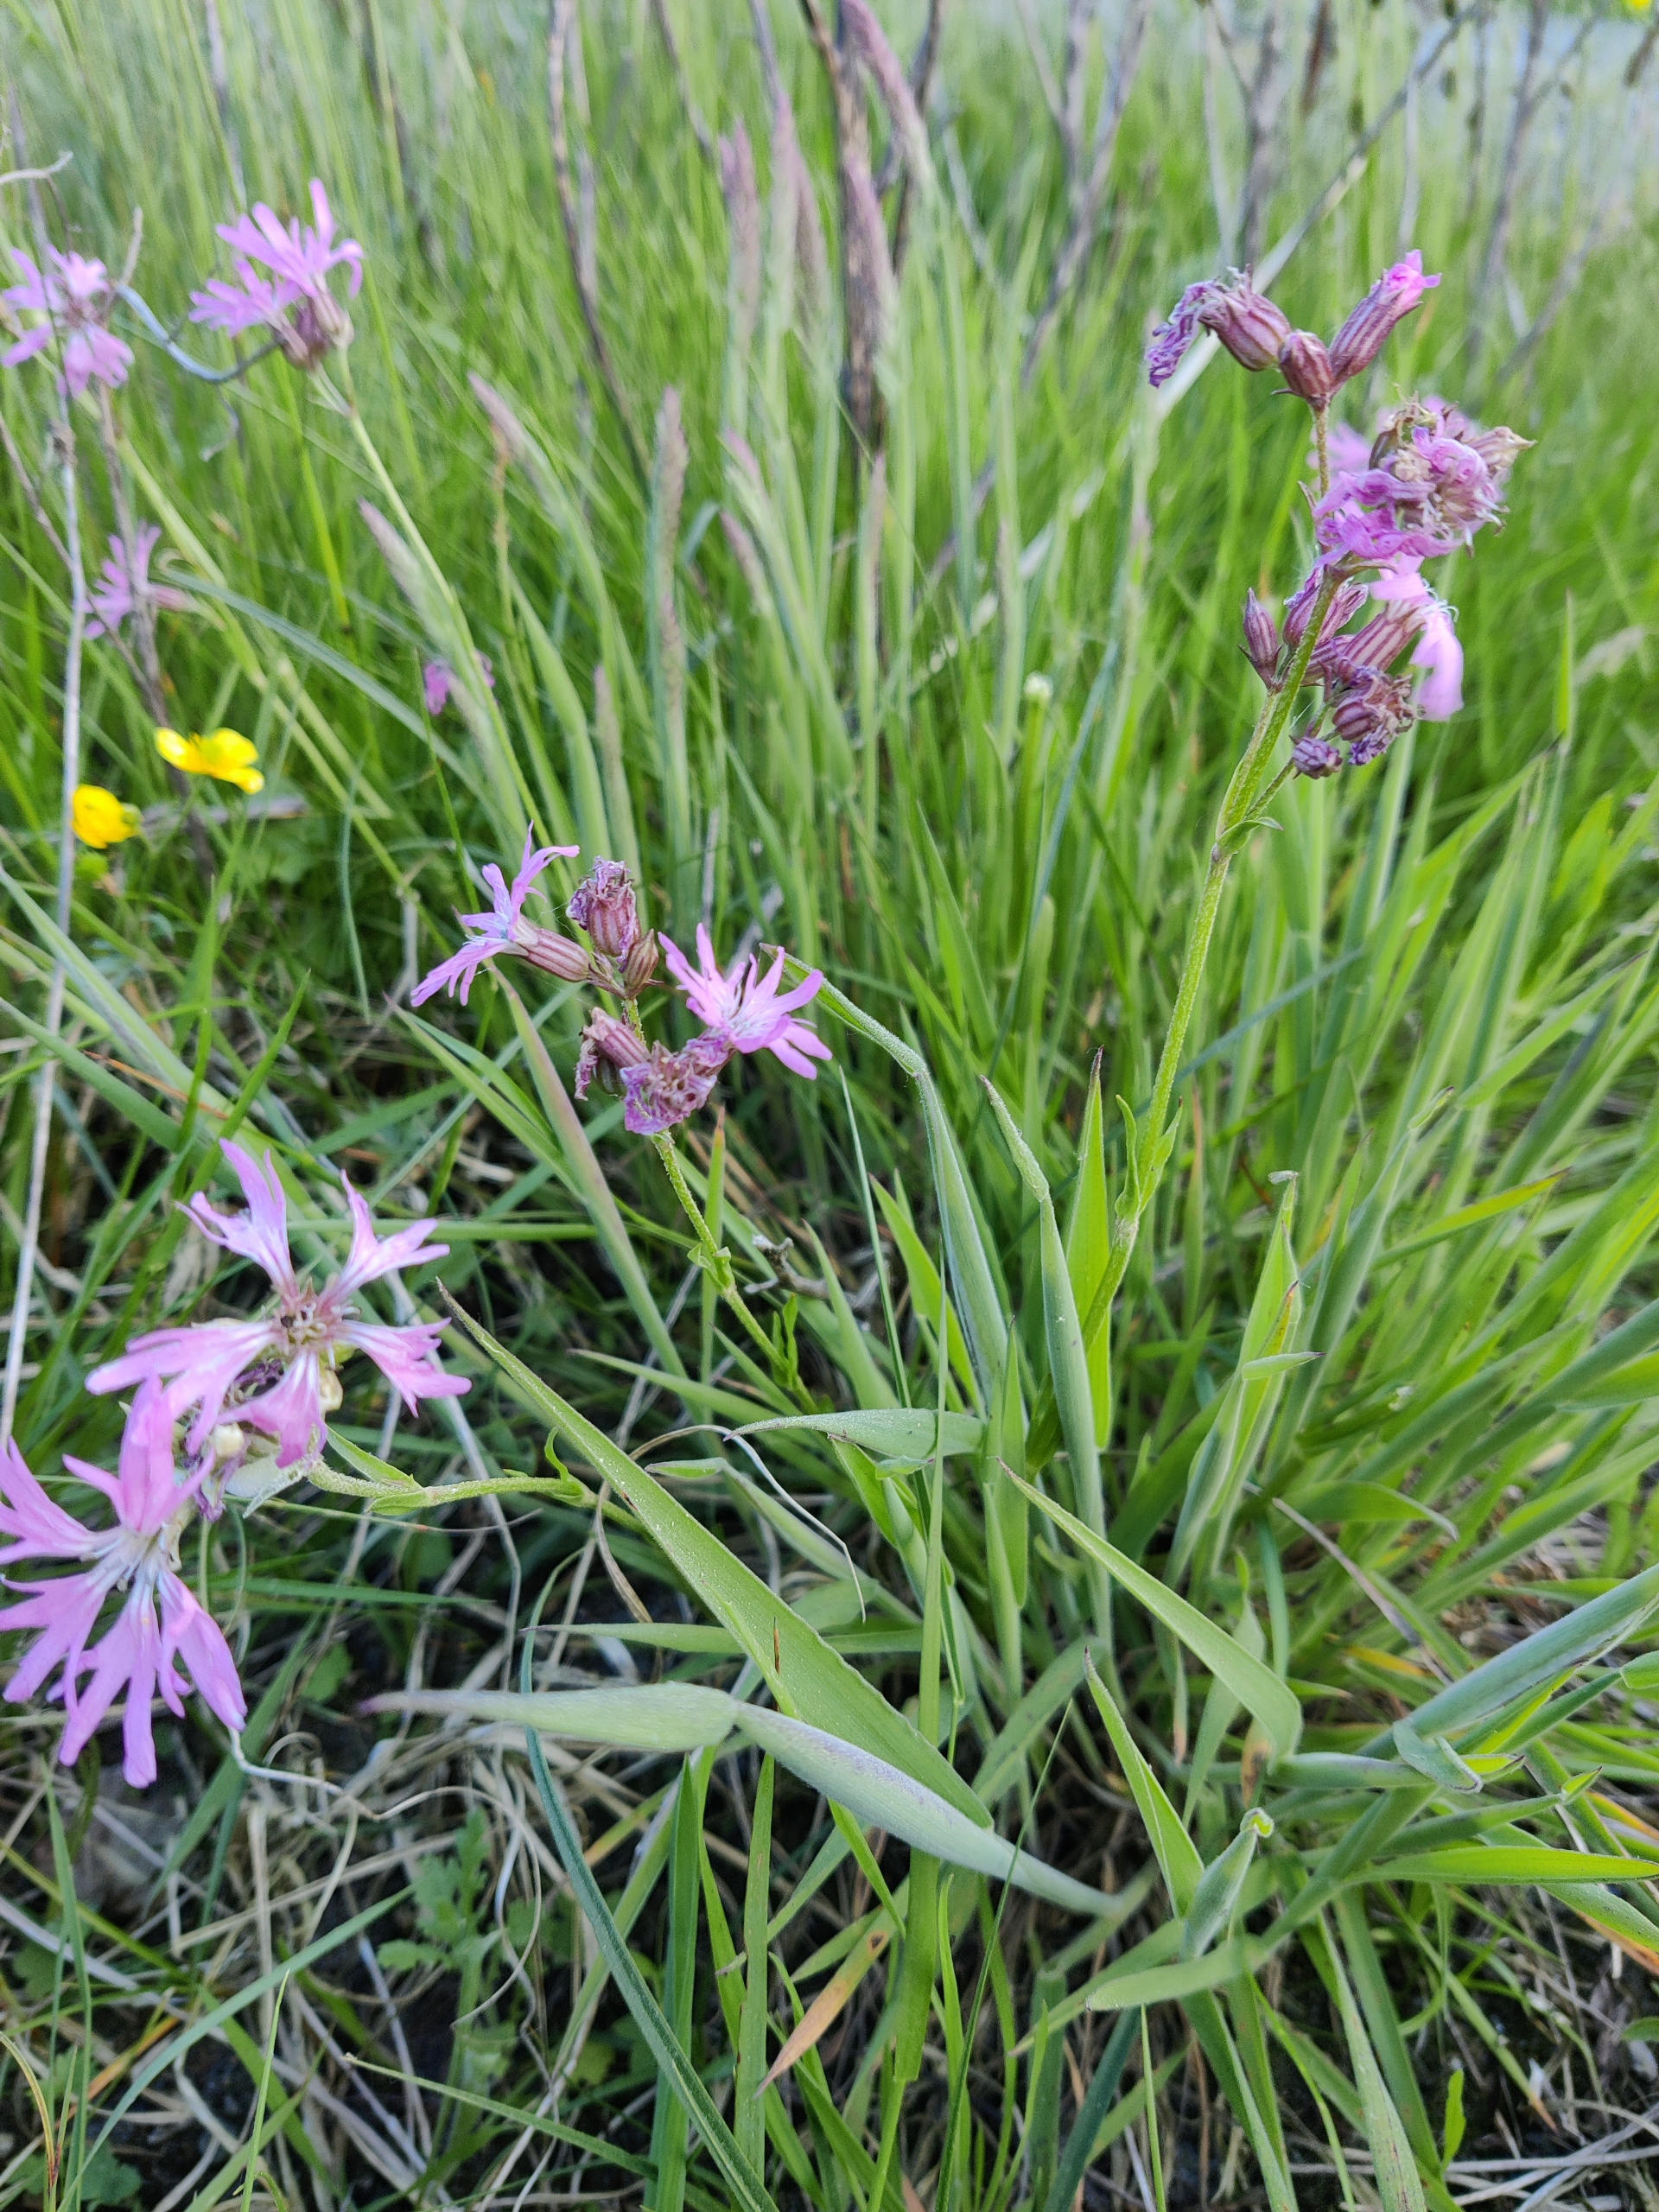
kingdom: Plantae
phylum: Tracheophyta
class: Magnoliopsida
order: Caryophyllales
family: Caryophyllaceae
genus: Silene
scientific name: Silene flos-cuculi
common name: Trævlekrone
